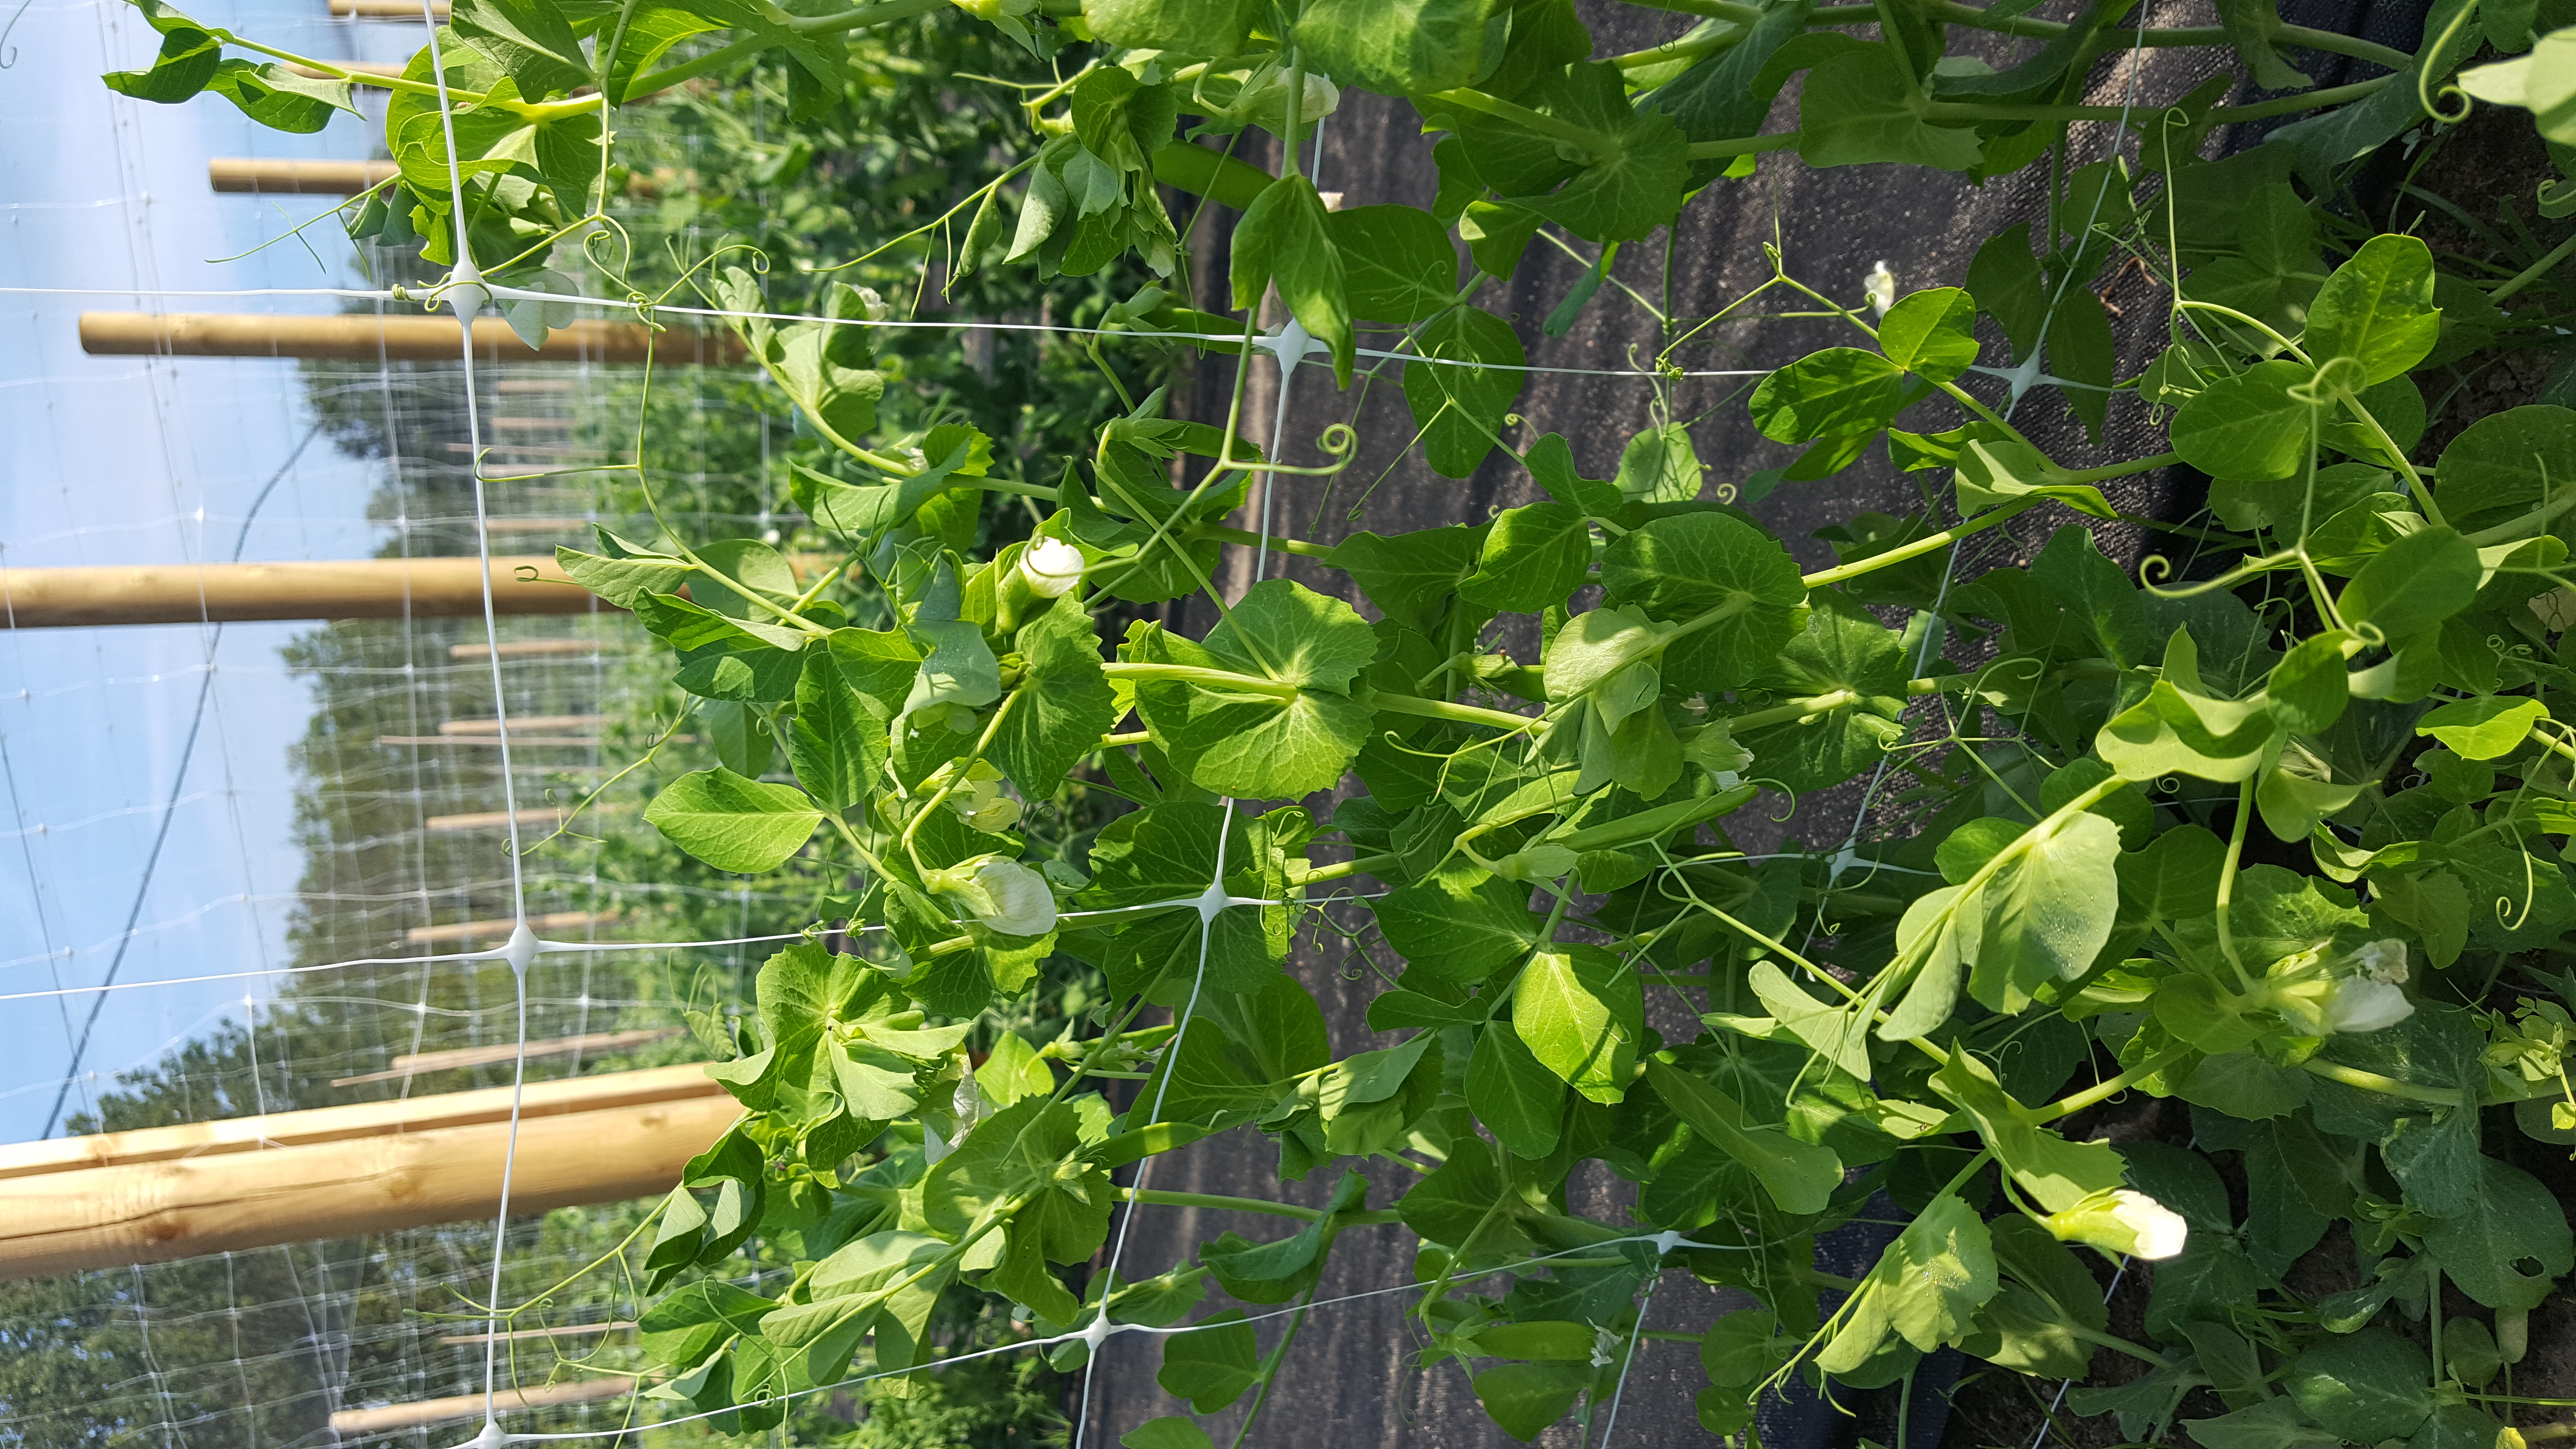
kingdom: Plantae
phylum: Tracheophyta
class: Magnoliopsida
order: Fabales
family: Fabaceae
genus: Lathyrus
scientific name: Lathyrus oleraceus
